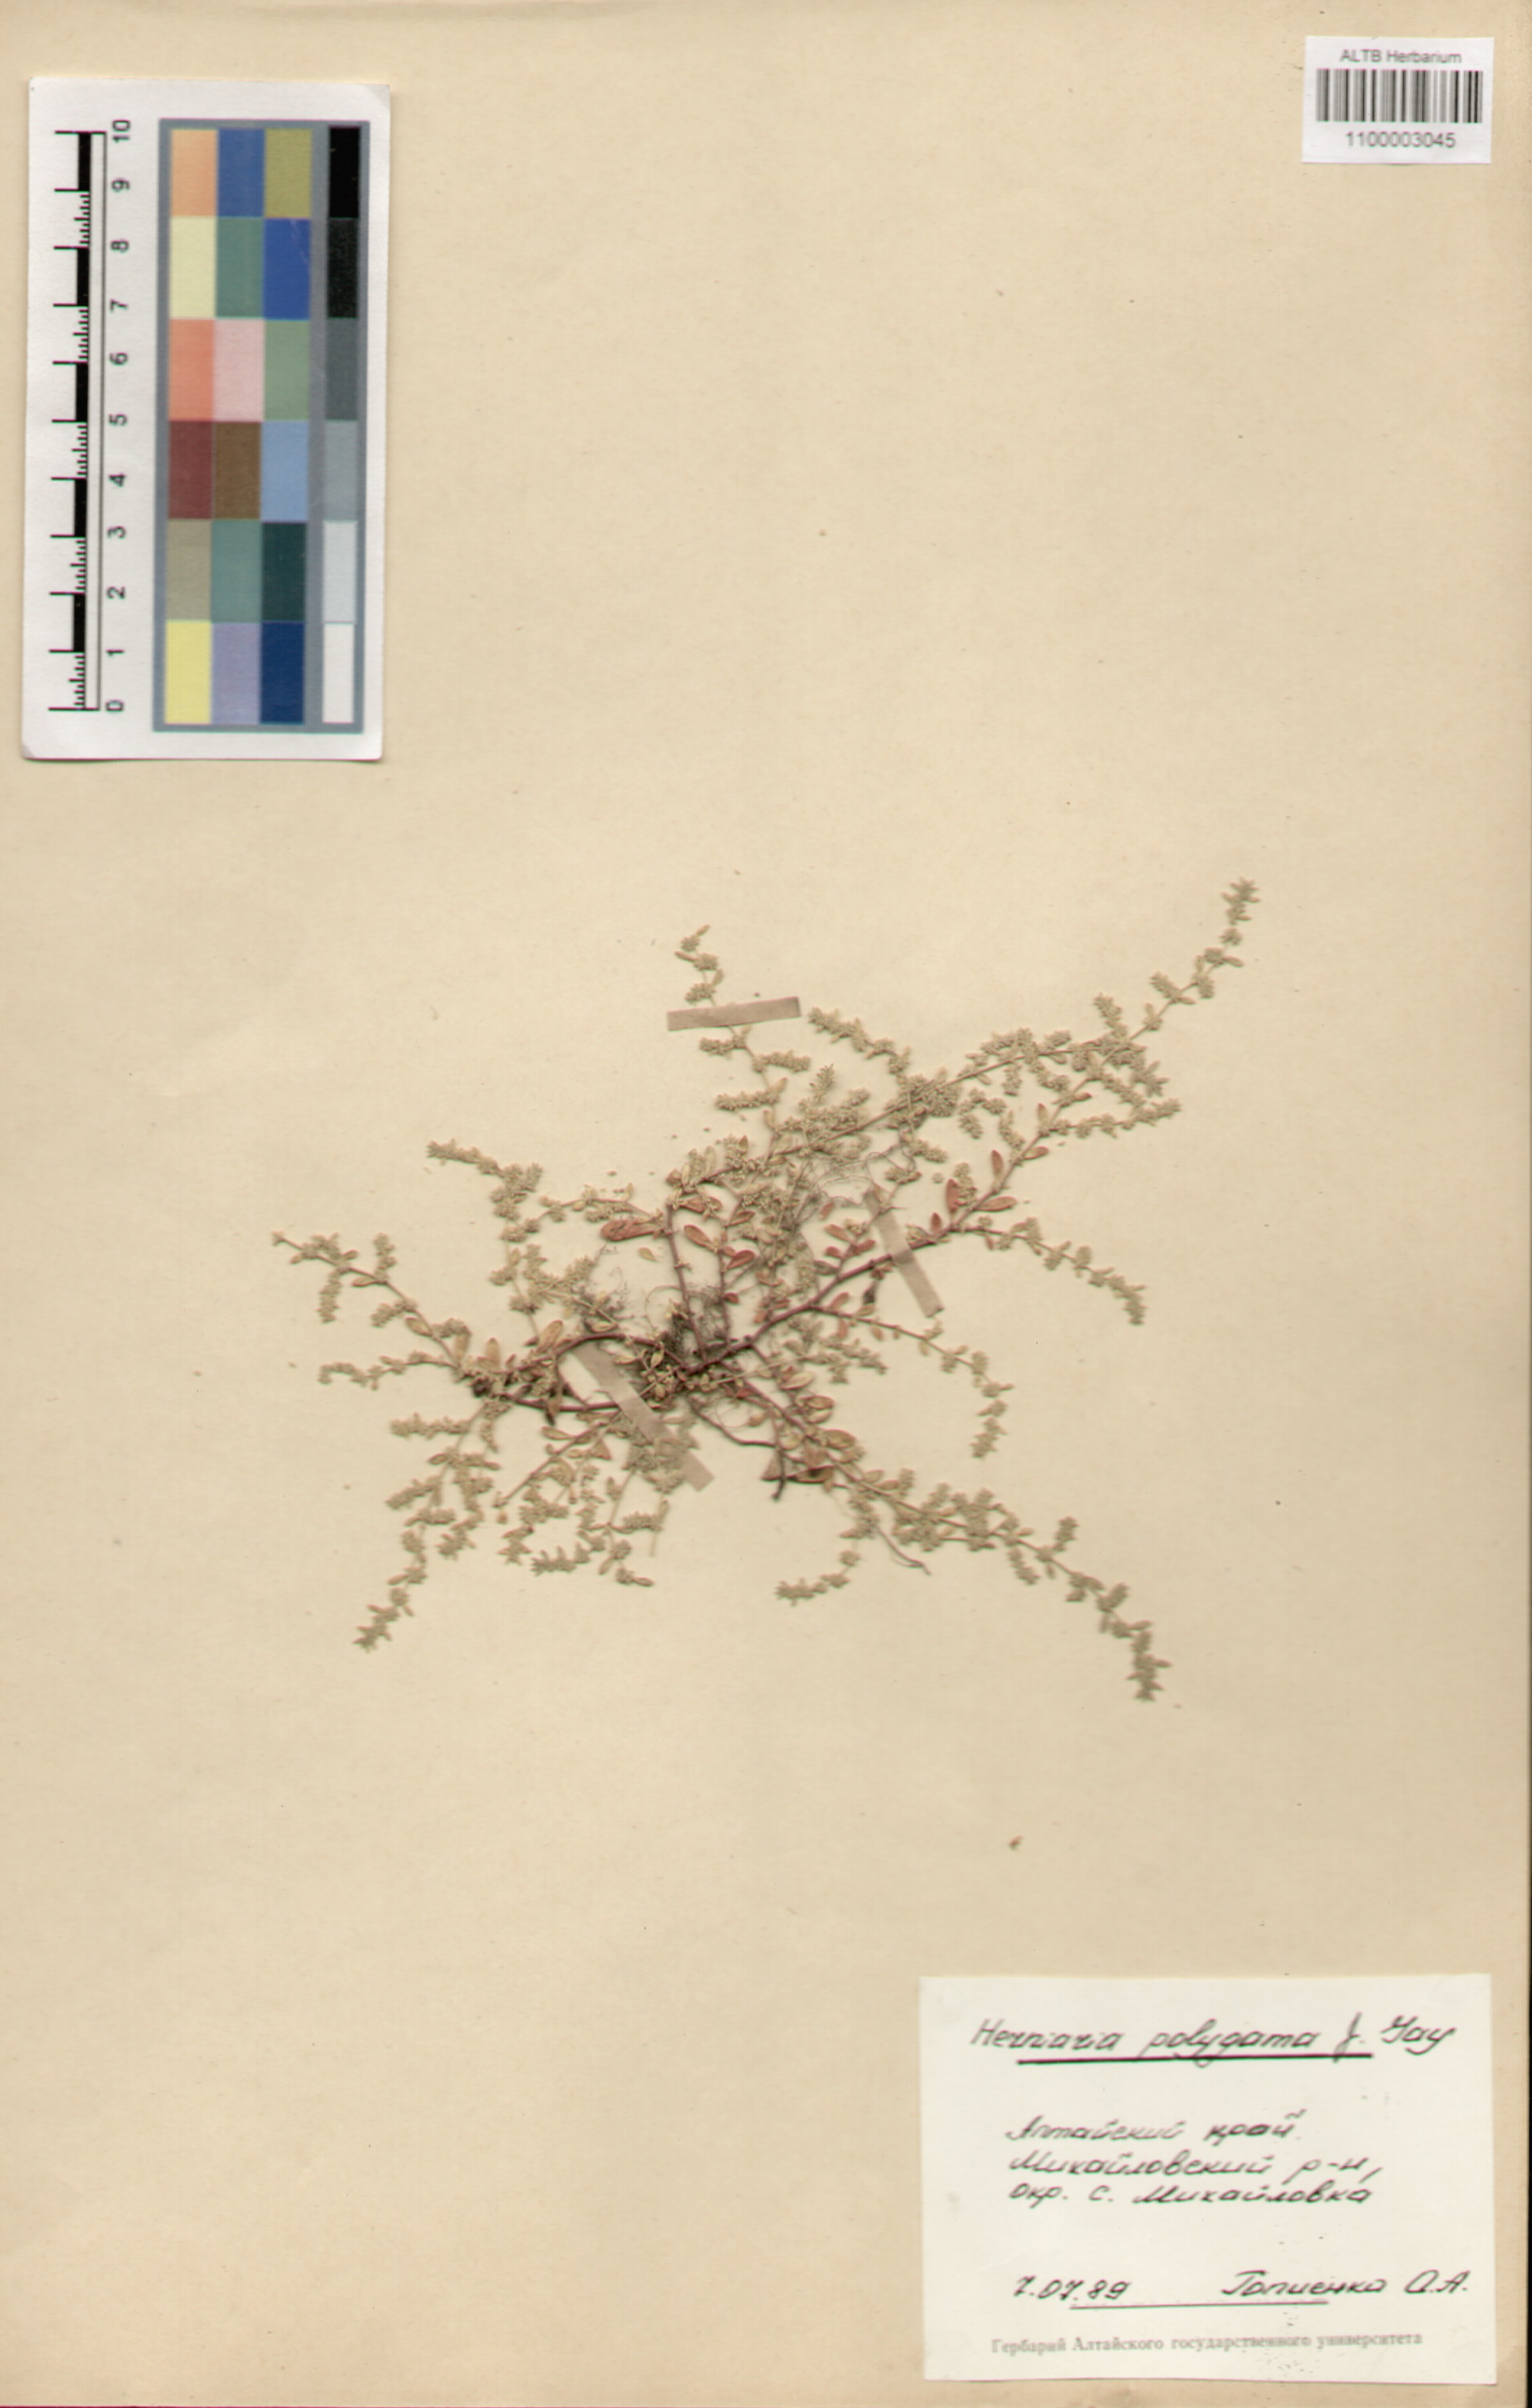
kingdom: Plantae
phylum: Tracheophyta
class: Magnoliopsida
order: Caryophyllales
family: Caryophyllaceae
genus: Herniaria
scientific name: Herniaria polygama
